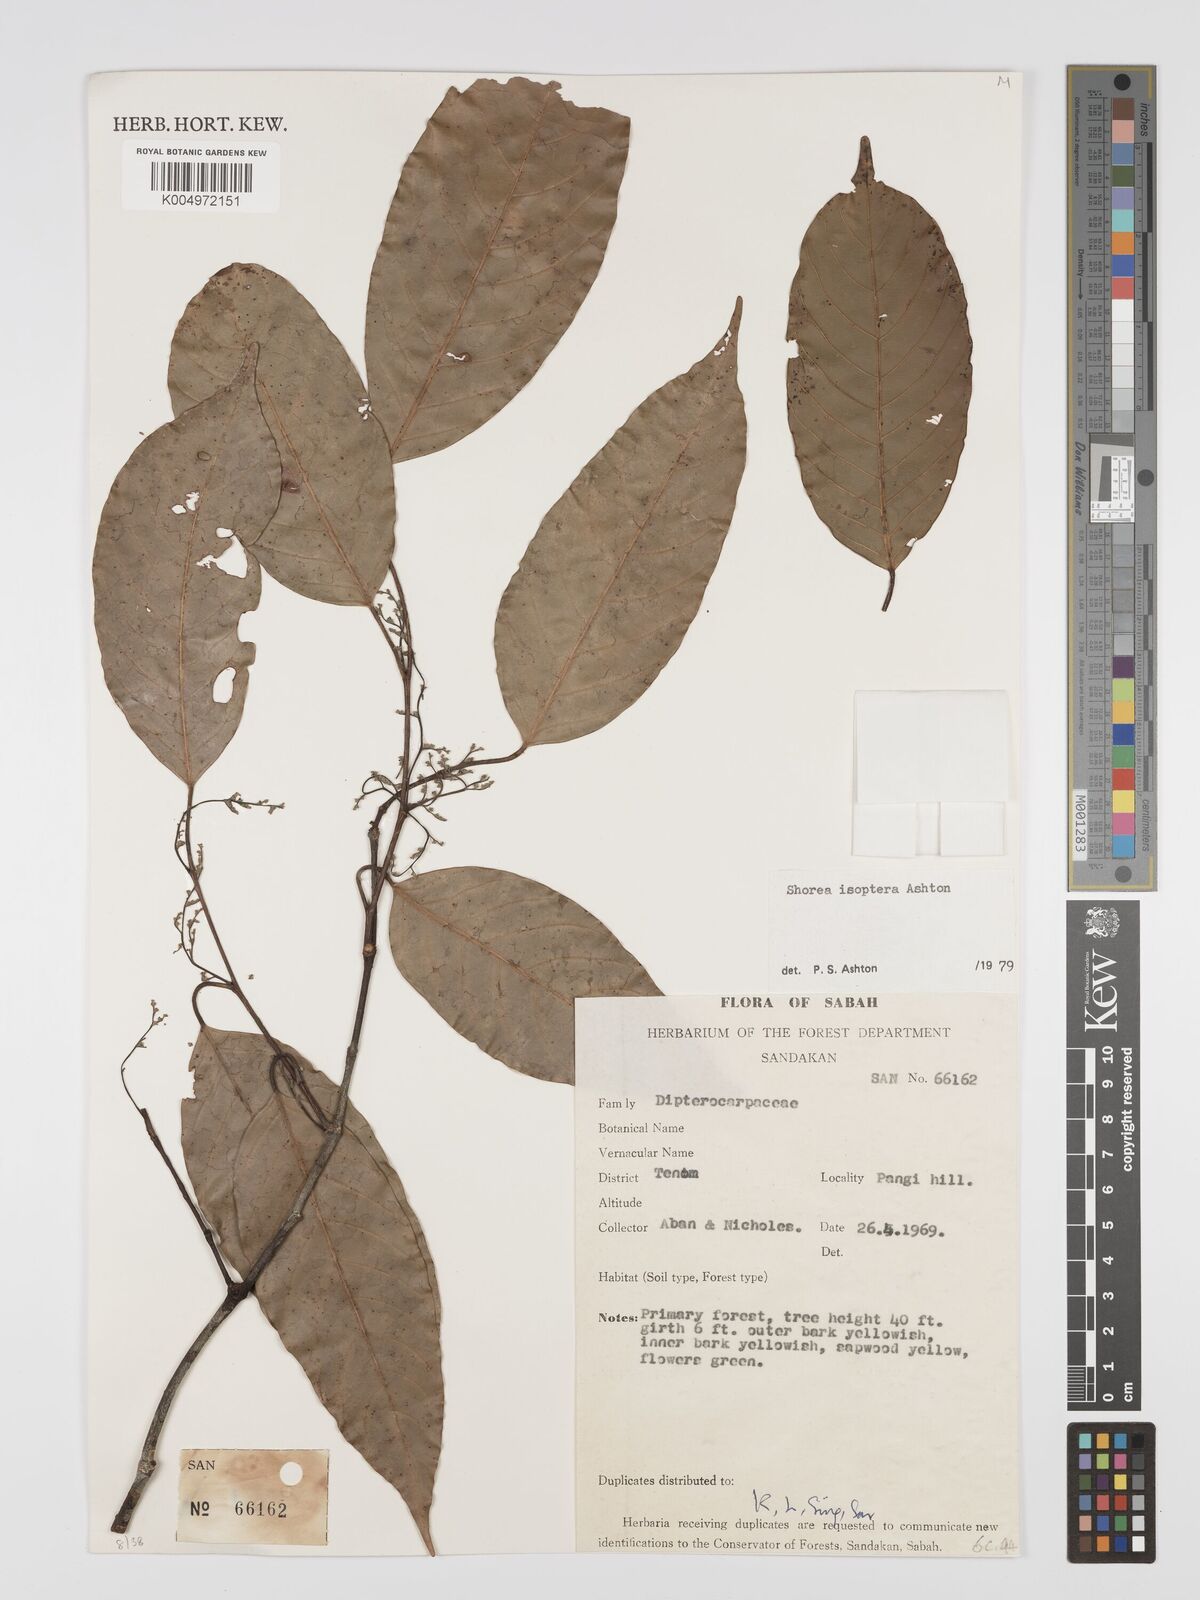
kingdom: Plantae
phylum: Tracheophyta
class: Magnoliopsida
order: Malvales
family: Dipterocarpaceae
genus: Neohopea
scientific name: Neohopea isoptera
